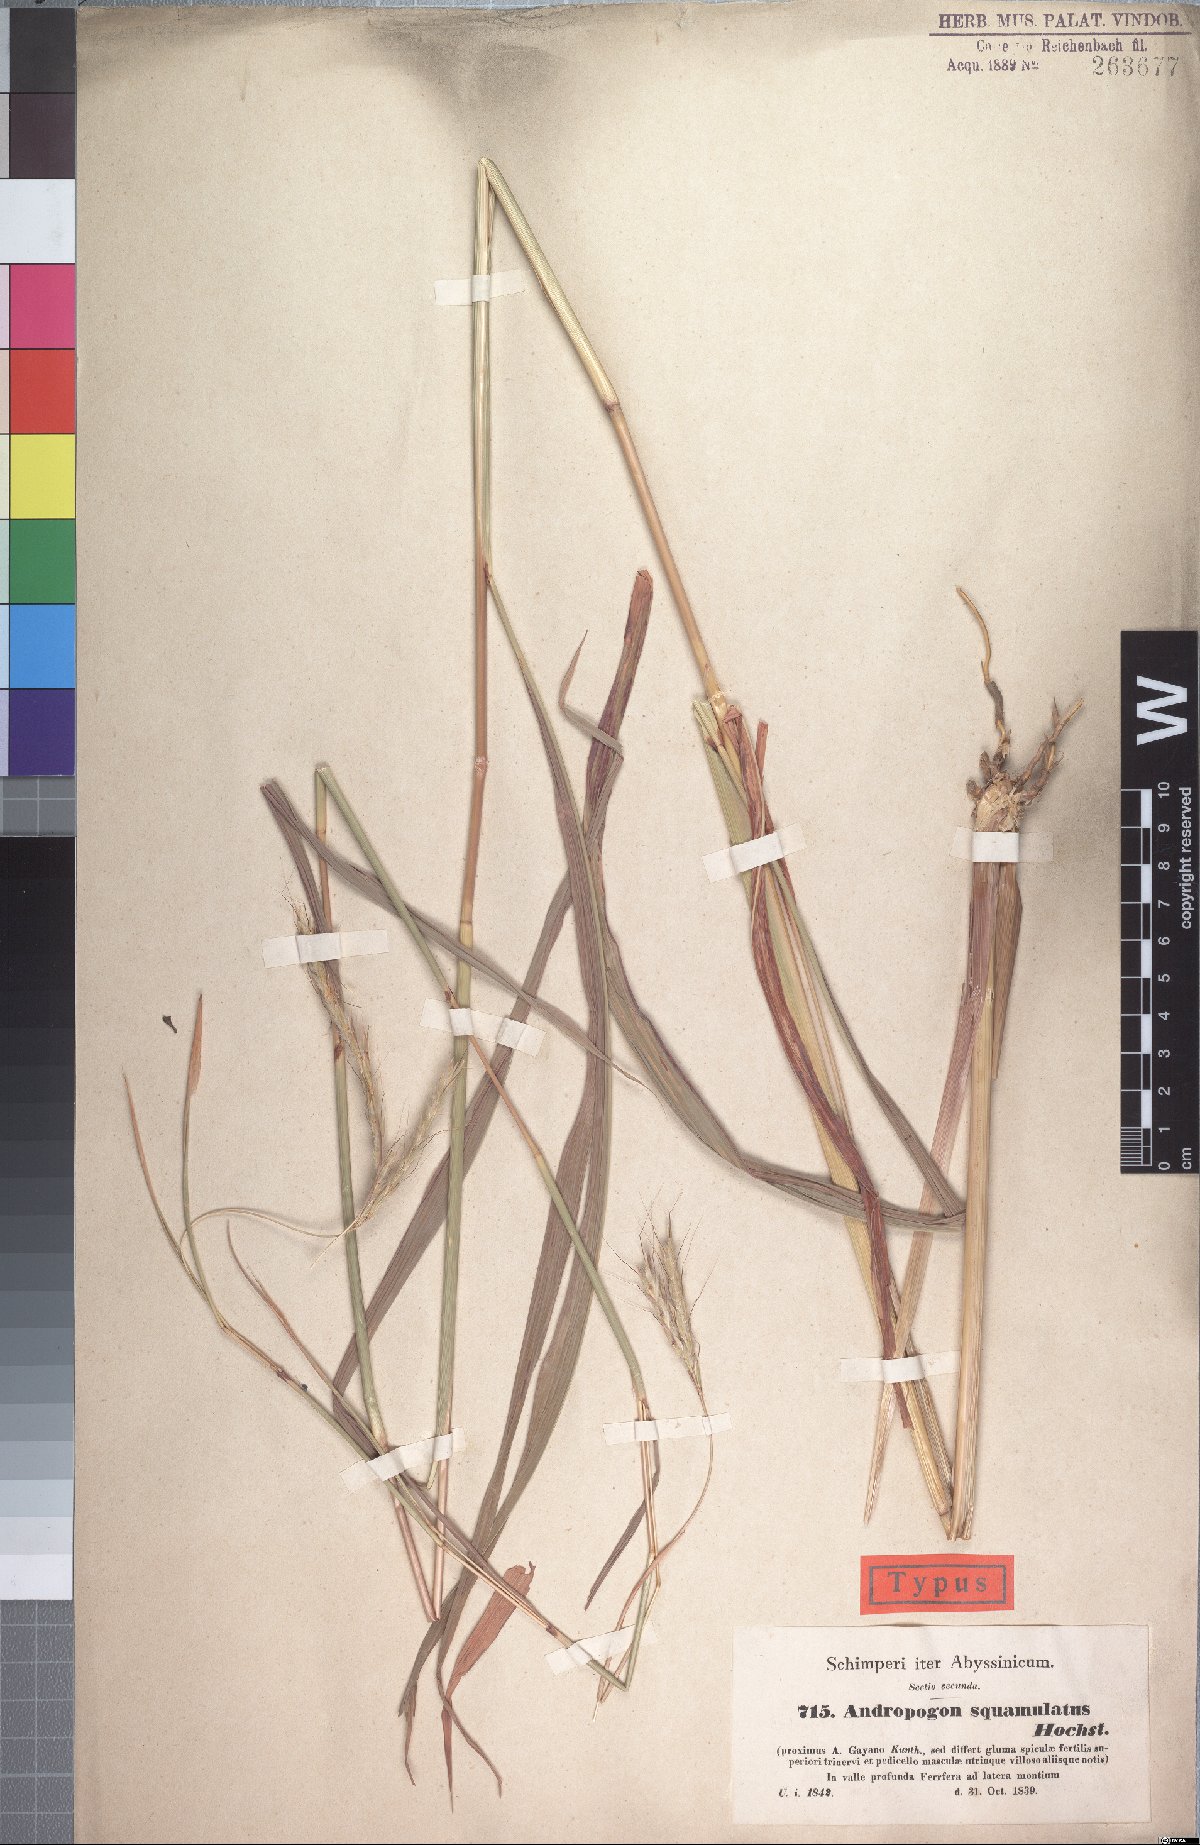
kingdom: Plantae
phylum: Tracheophyta
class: Liliopsida
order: Poales
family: Poaceae
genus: Andropogon
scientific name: Andropogon gayanus
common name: Tambuki grass
